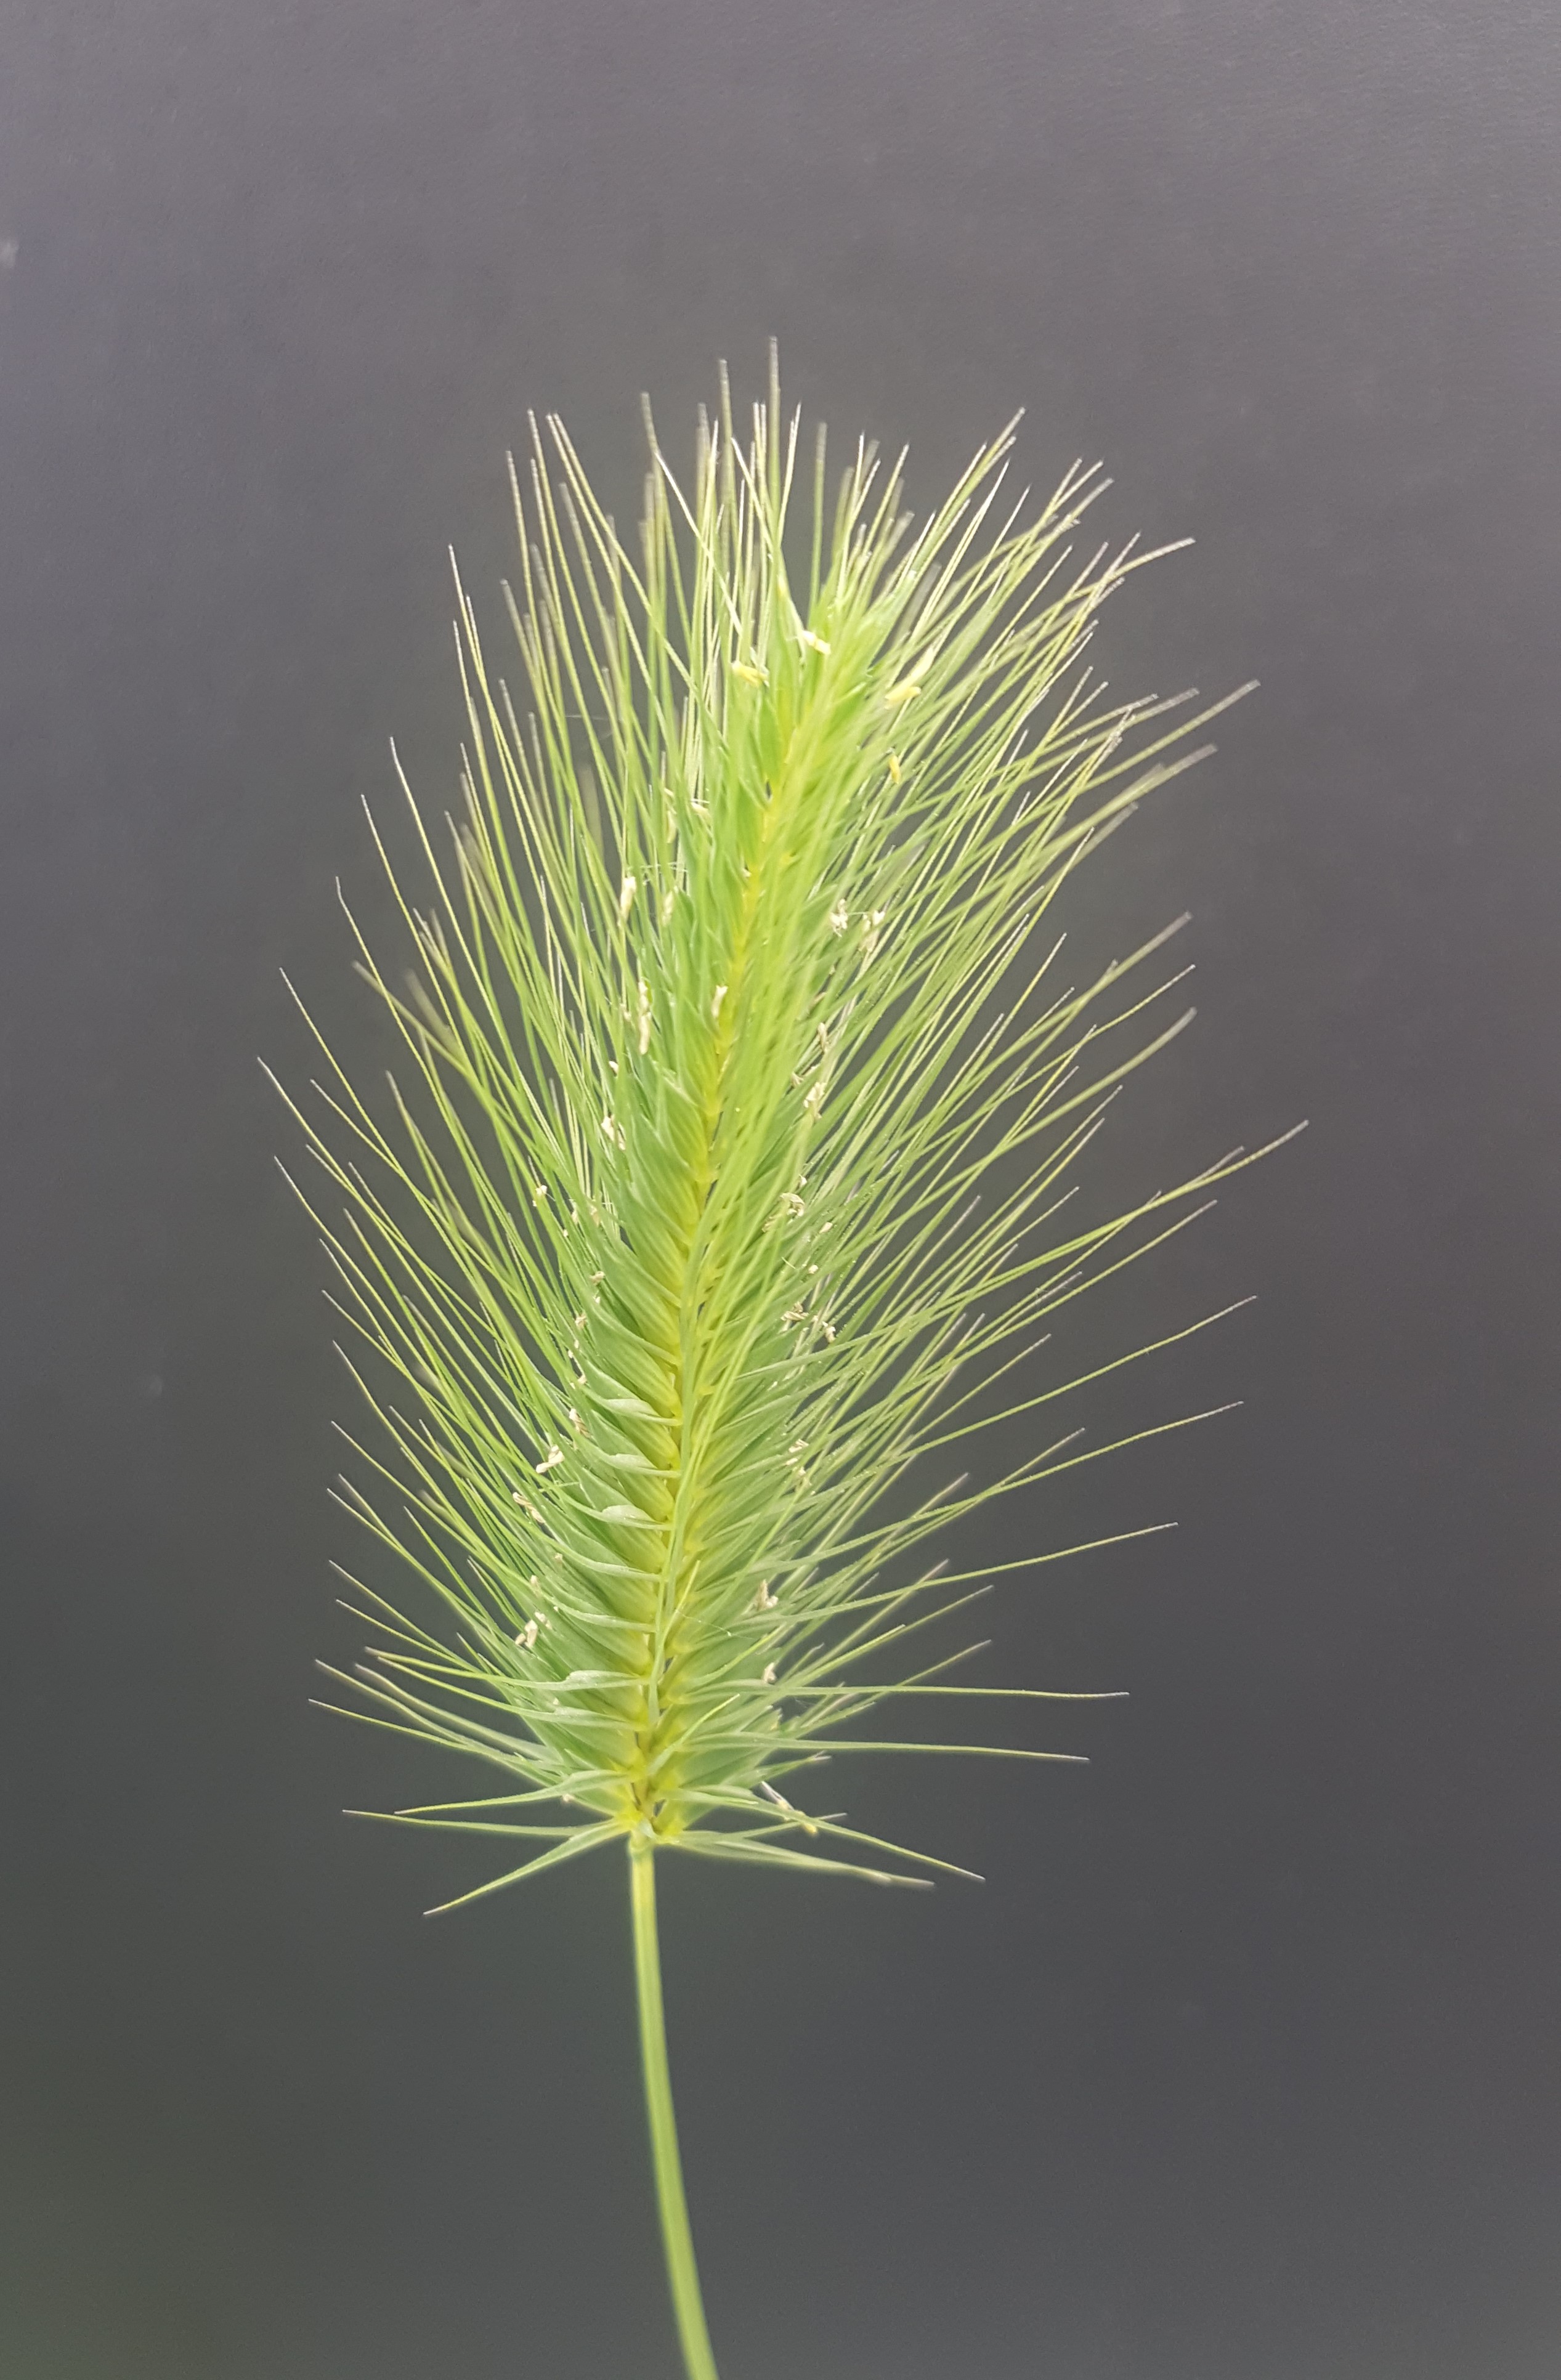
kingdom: Plantae
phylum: Tracheophyta
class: Liliopsida
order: Poales
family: Poaceae
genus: Hordeum
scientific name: Hordeum marinum
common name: Sea barley
